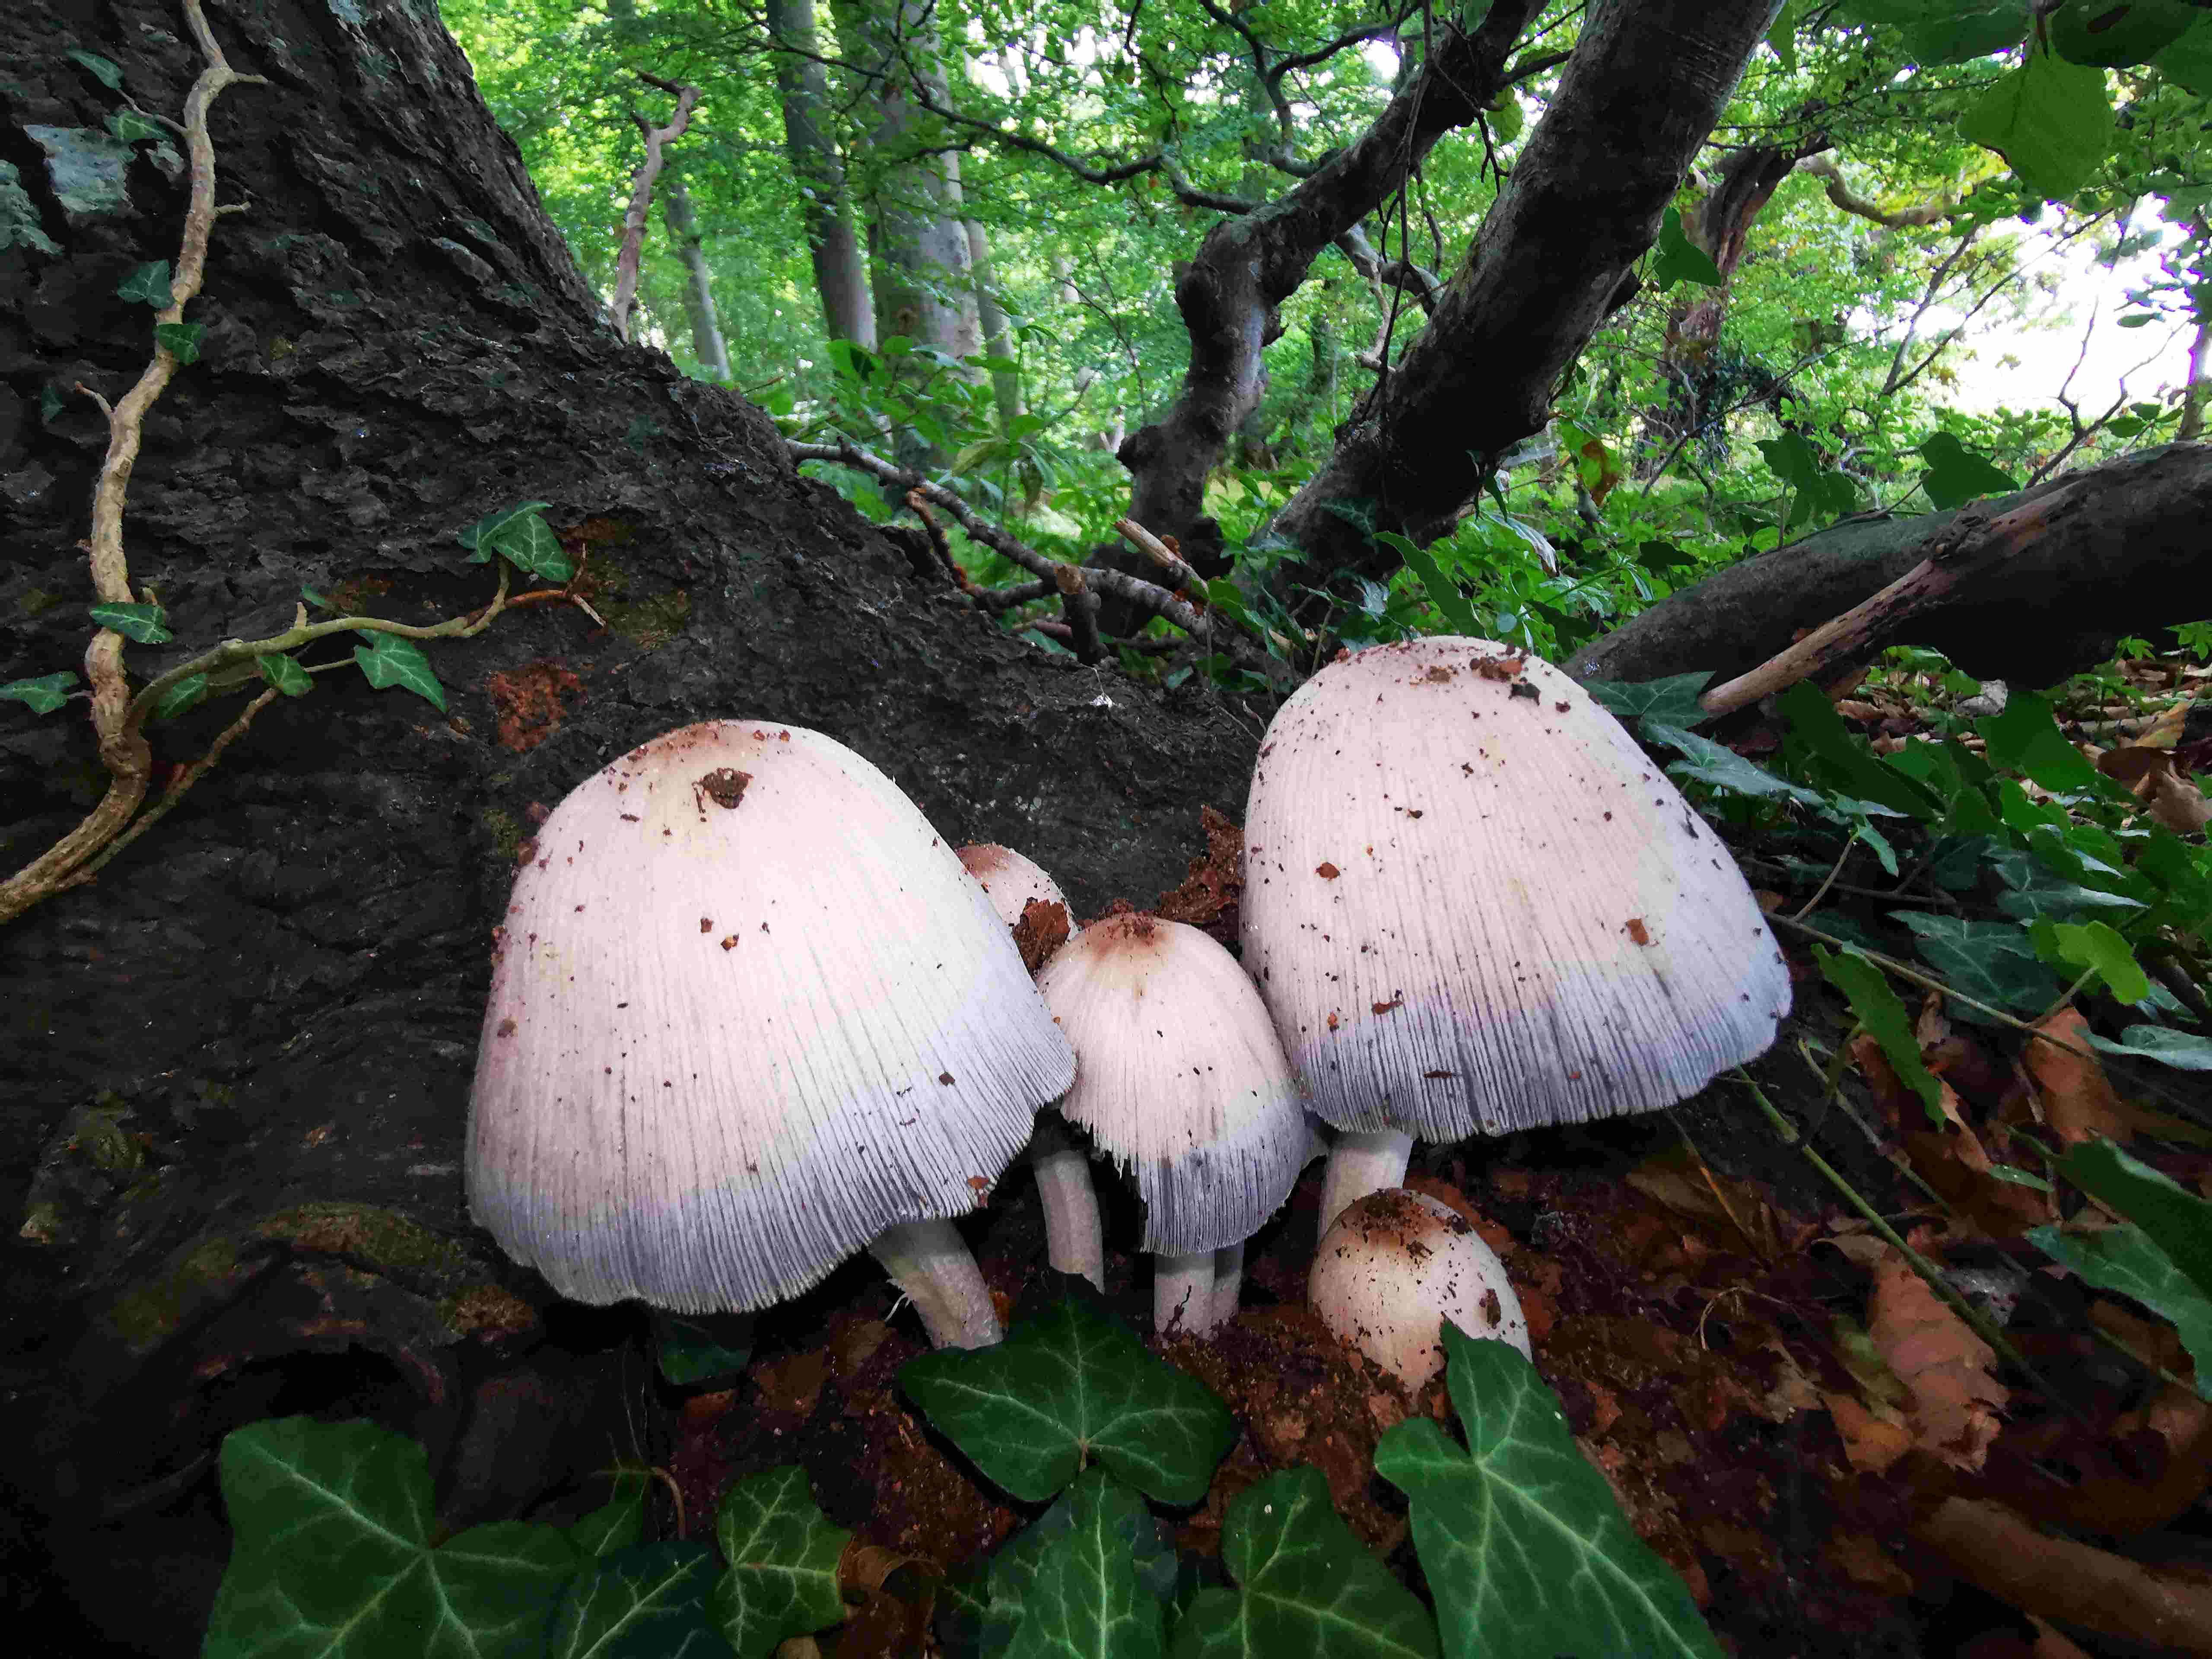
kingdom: Fungi
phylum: Basidiomycota
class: Agaricomycetes
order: Agaricales
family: Psathyrellaceae
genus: Coprinopsis
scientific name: Coprinopsis insignis
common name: stor blækhat
